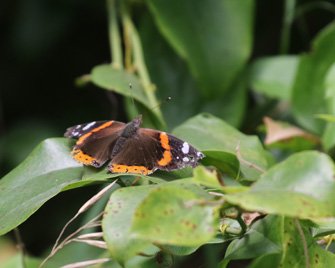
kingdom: Animalia
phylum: Arthropoda
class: Insecta
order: Lepidoptera
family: Nymphalidae
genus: Vanessa
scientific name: Vanessa atalanta
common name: Red Admiral
